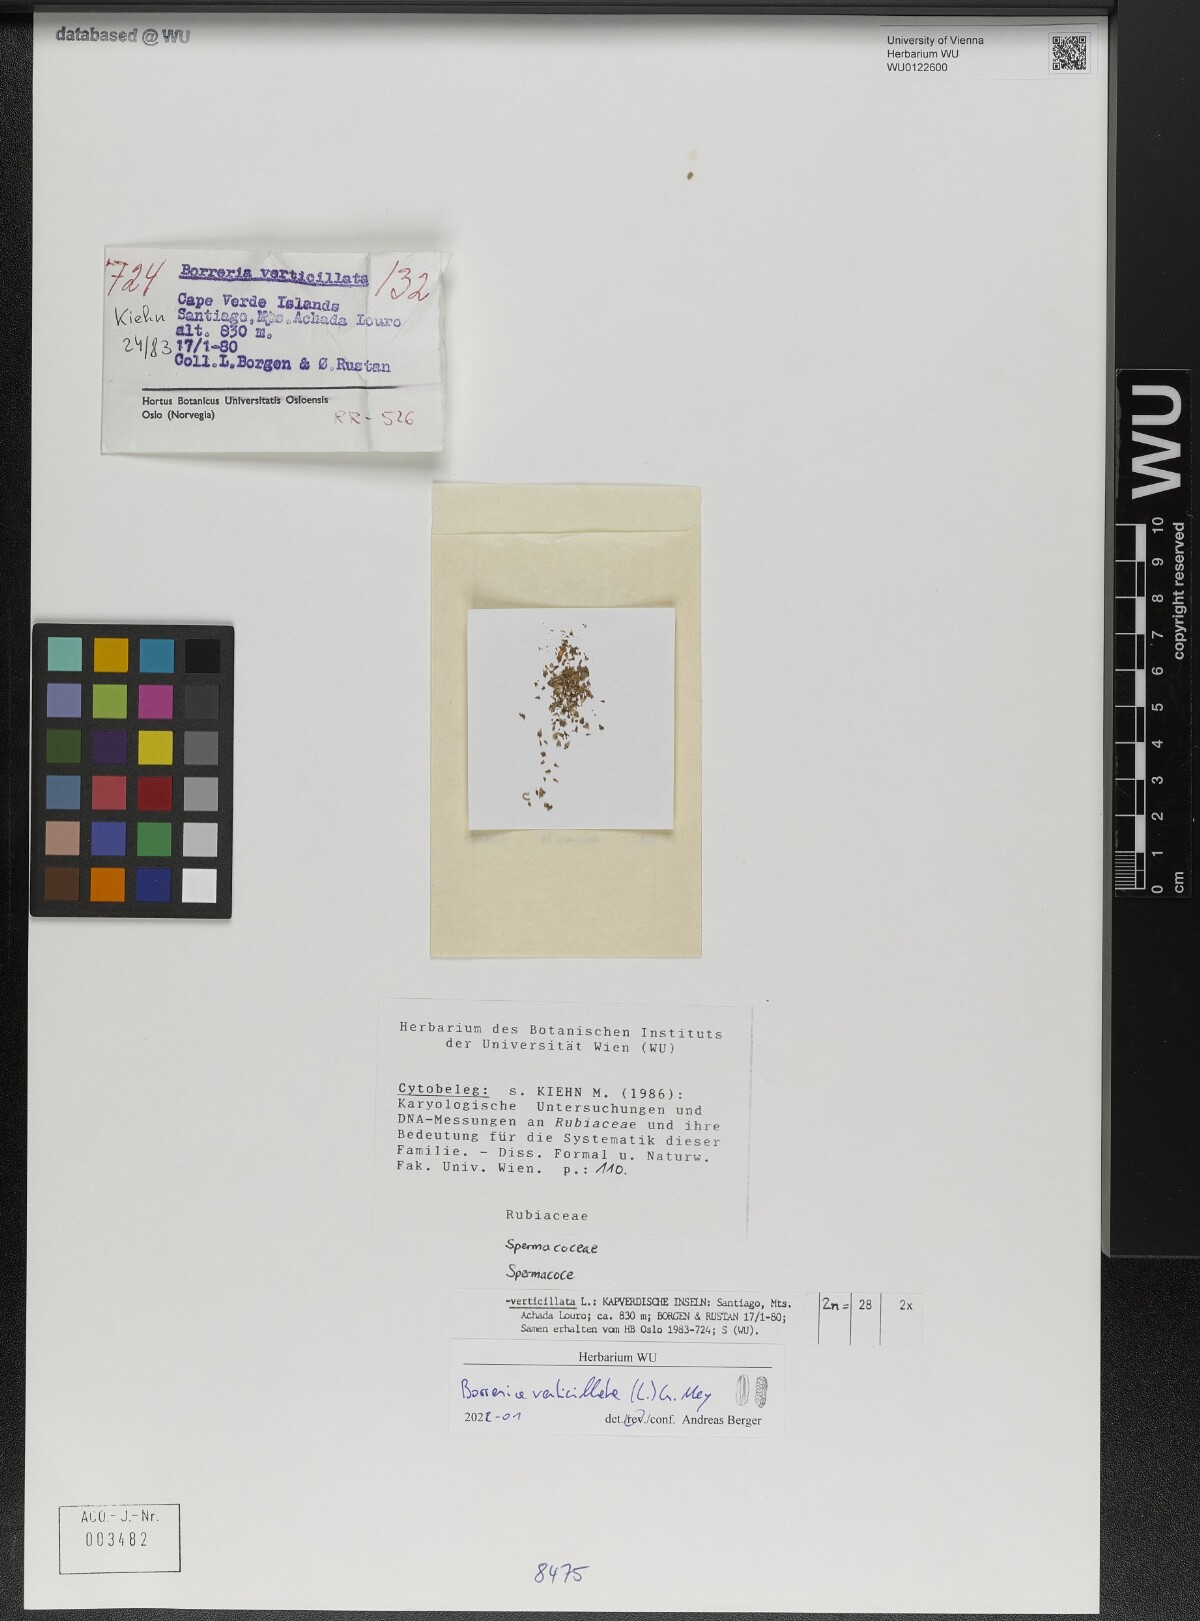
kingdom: Plantae
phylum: Tracheophyta
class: Magnoliopsida
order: Gentianales
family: Rubiaceae
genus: Spermacoce
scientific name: Spermacoce verticillata
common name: Shrubby false buttonweed
